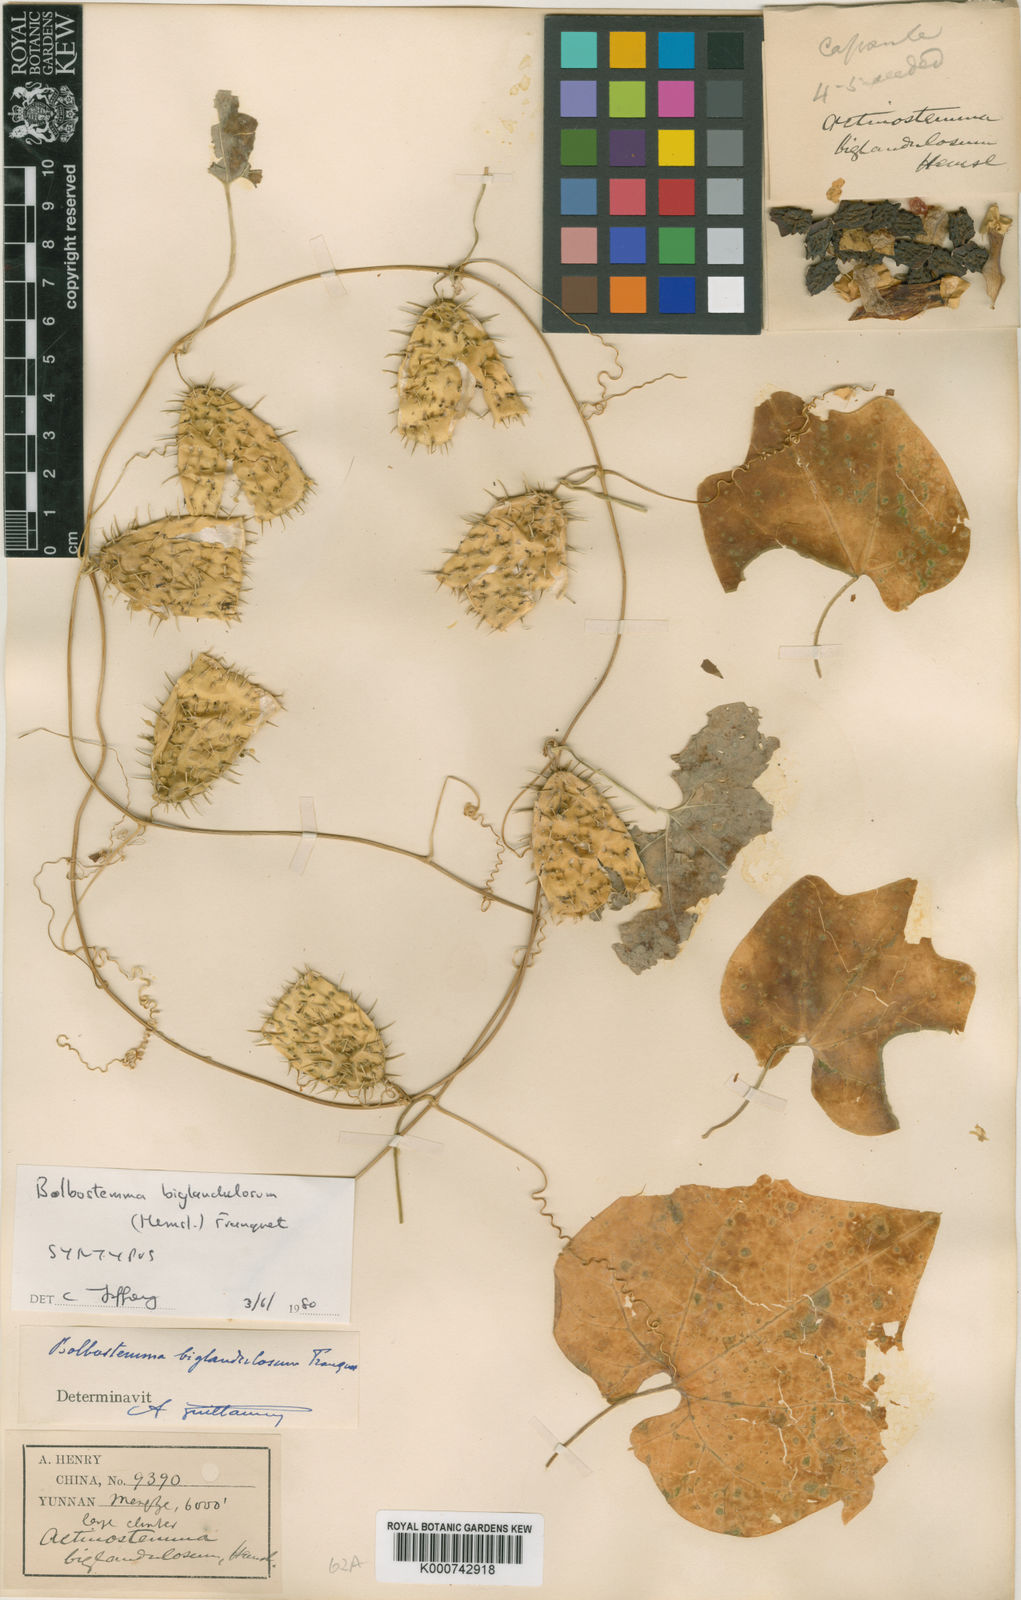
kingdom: Plantae
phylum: Tracheophyta
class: Magnoliopsida
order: Cucurbitales
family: Cucurbitaceae
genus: Actinostemma
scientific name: Actinostemma biglandulosum
